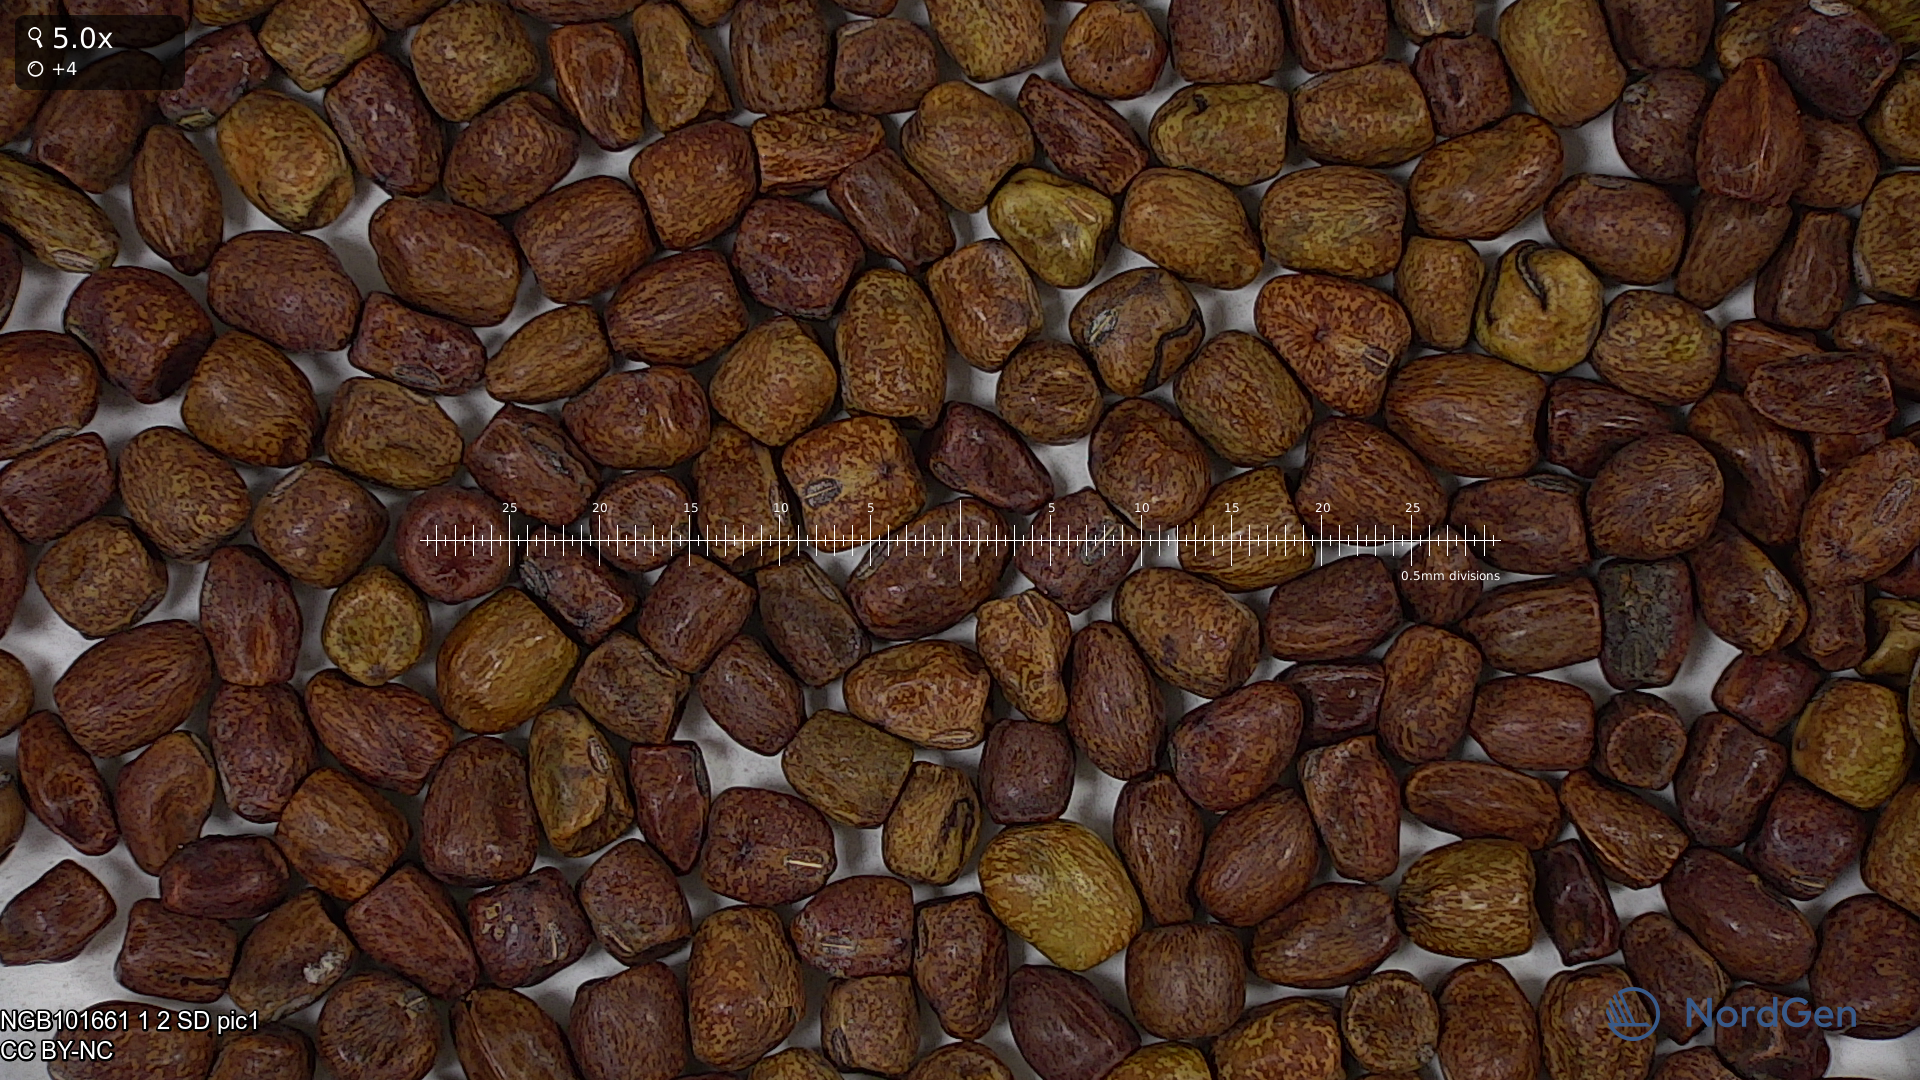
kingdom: Plantae
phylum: Tracheophyta
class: Magnoliopsida
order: Fabales
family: Fabaceae
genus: Lathyrus
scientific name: Lathyrus oleraceus
